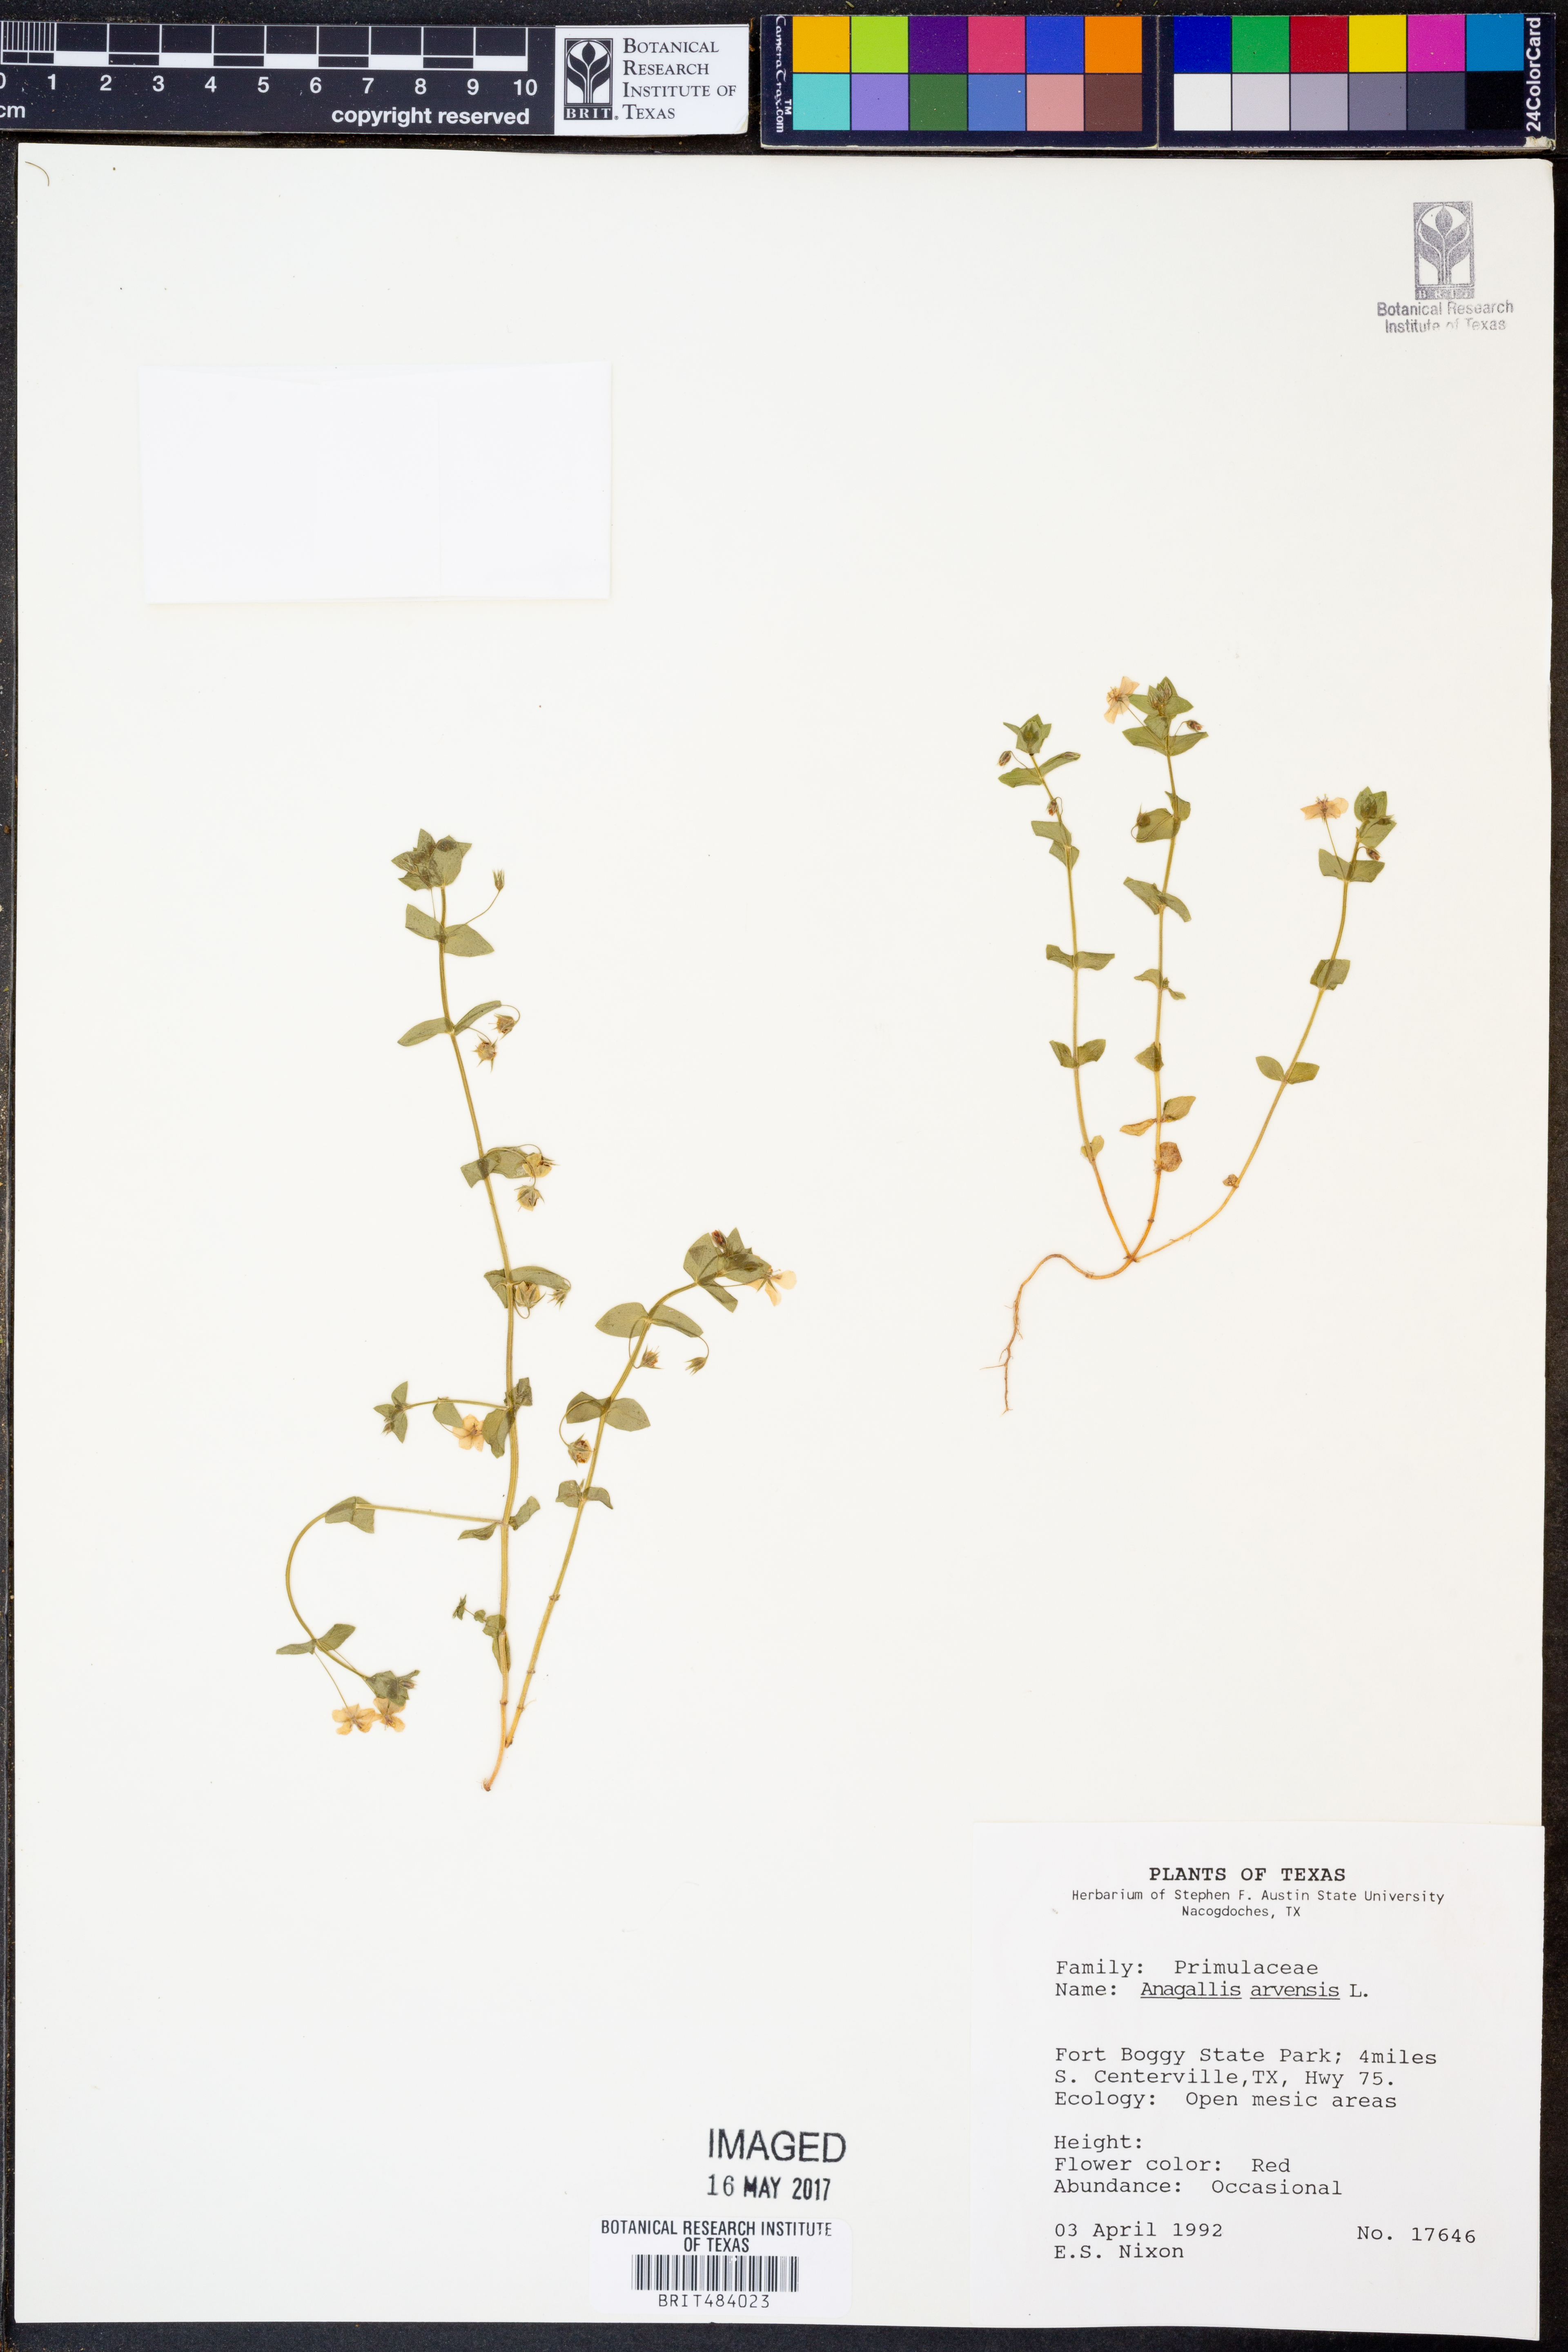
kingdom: Plantae
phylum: Tracheophyta
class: Magnoliopsida
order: Ericales
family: Primulaceae
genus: Lysimachia
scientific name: Lysimachia arvensis
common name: Scarlet pimpernel
